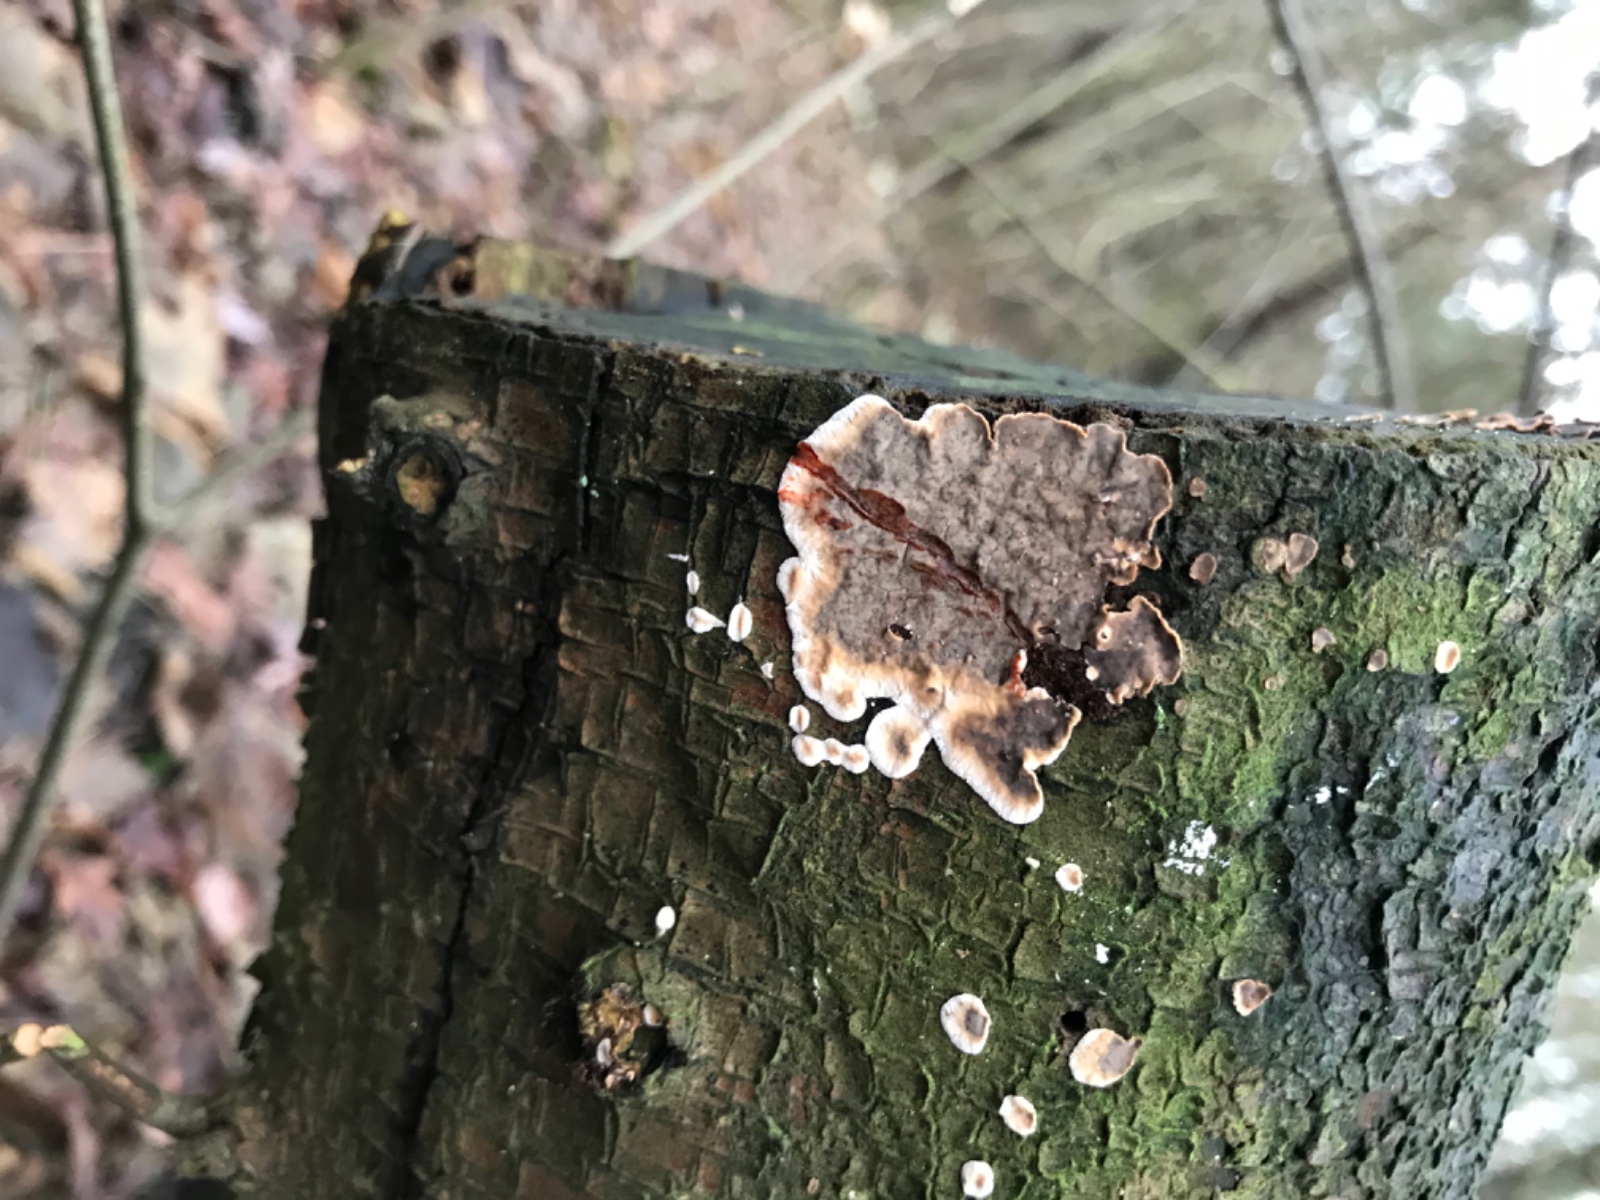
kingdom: Fungi
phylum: Basidiomycota
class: Agaricomycetes
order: Russulales
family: Stereaceae
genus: Stereum
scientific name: Stereum rugosum
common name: rynket lædersvamp
